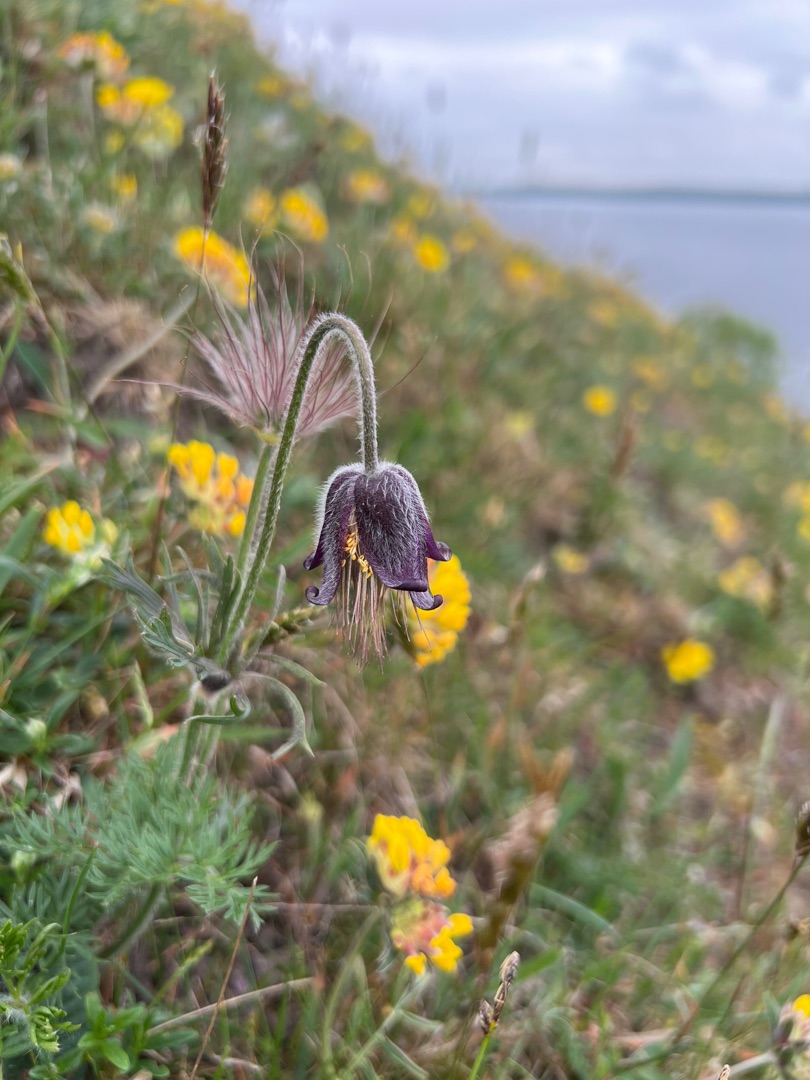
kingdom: Plantae
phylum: Tracheophyta
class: Magnoliopsida
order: Ranunculales
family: Ranunculaceae
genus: Pulsatilla
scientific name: Pulsatilla pratensis
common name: Nikkende kobjælde
